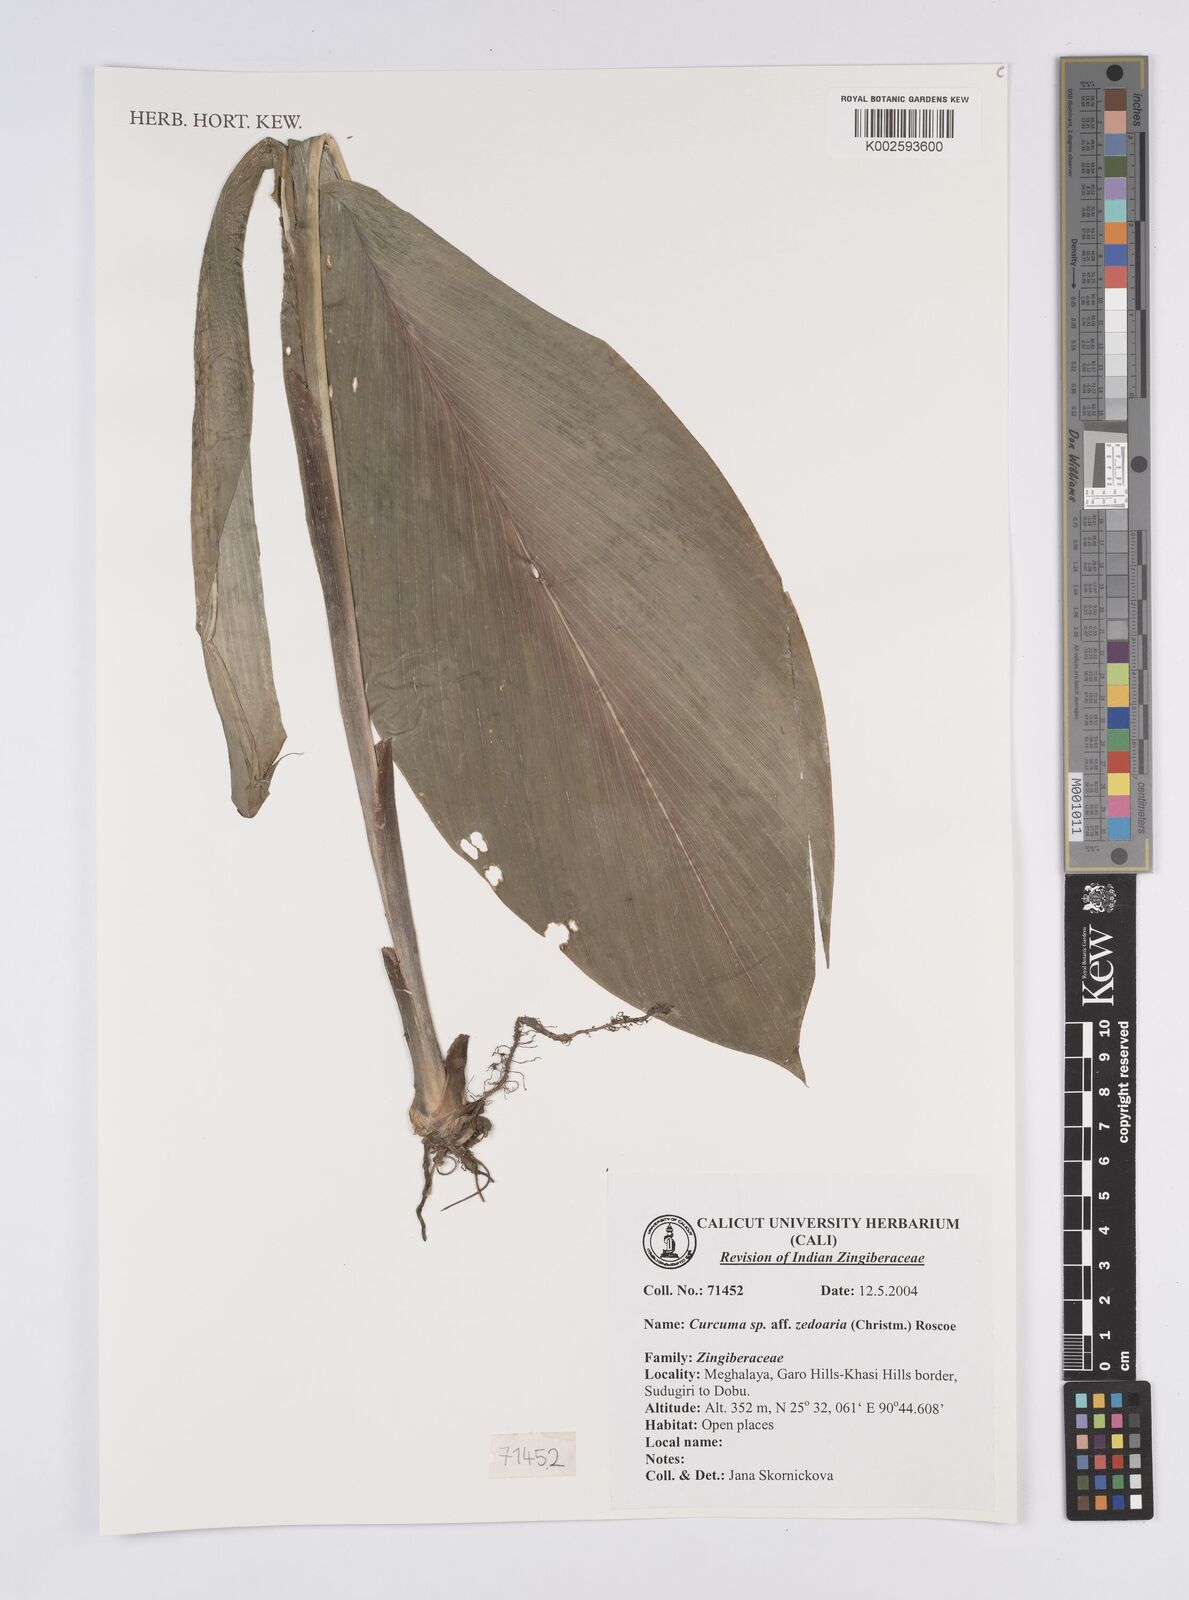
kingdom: Plantae
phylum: Tracheophyta
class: Liliopsida
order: Zingiberales
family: Zingiberaceae
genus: Curcuma
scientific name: Curcuma zedoaria
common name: Zedoary
